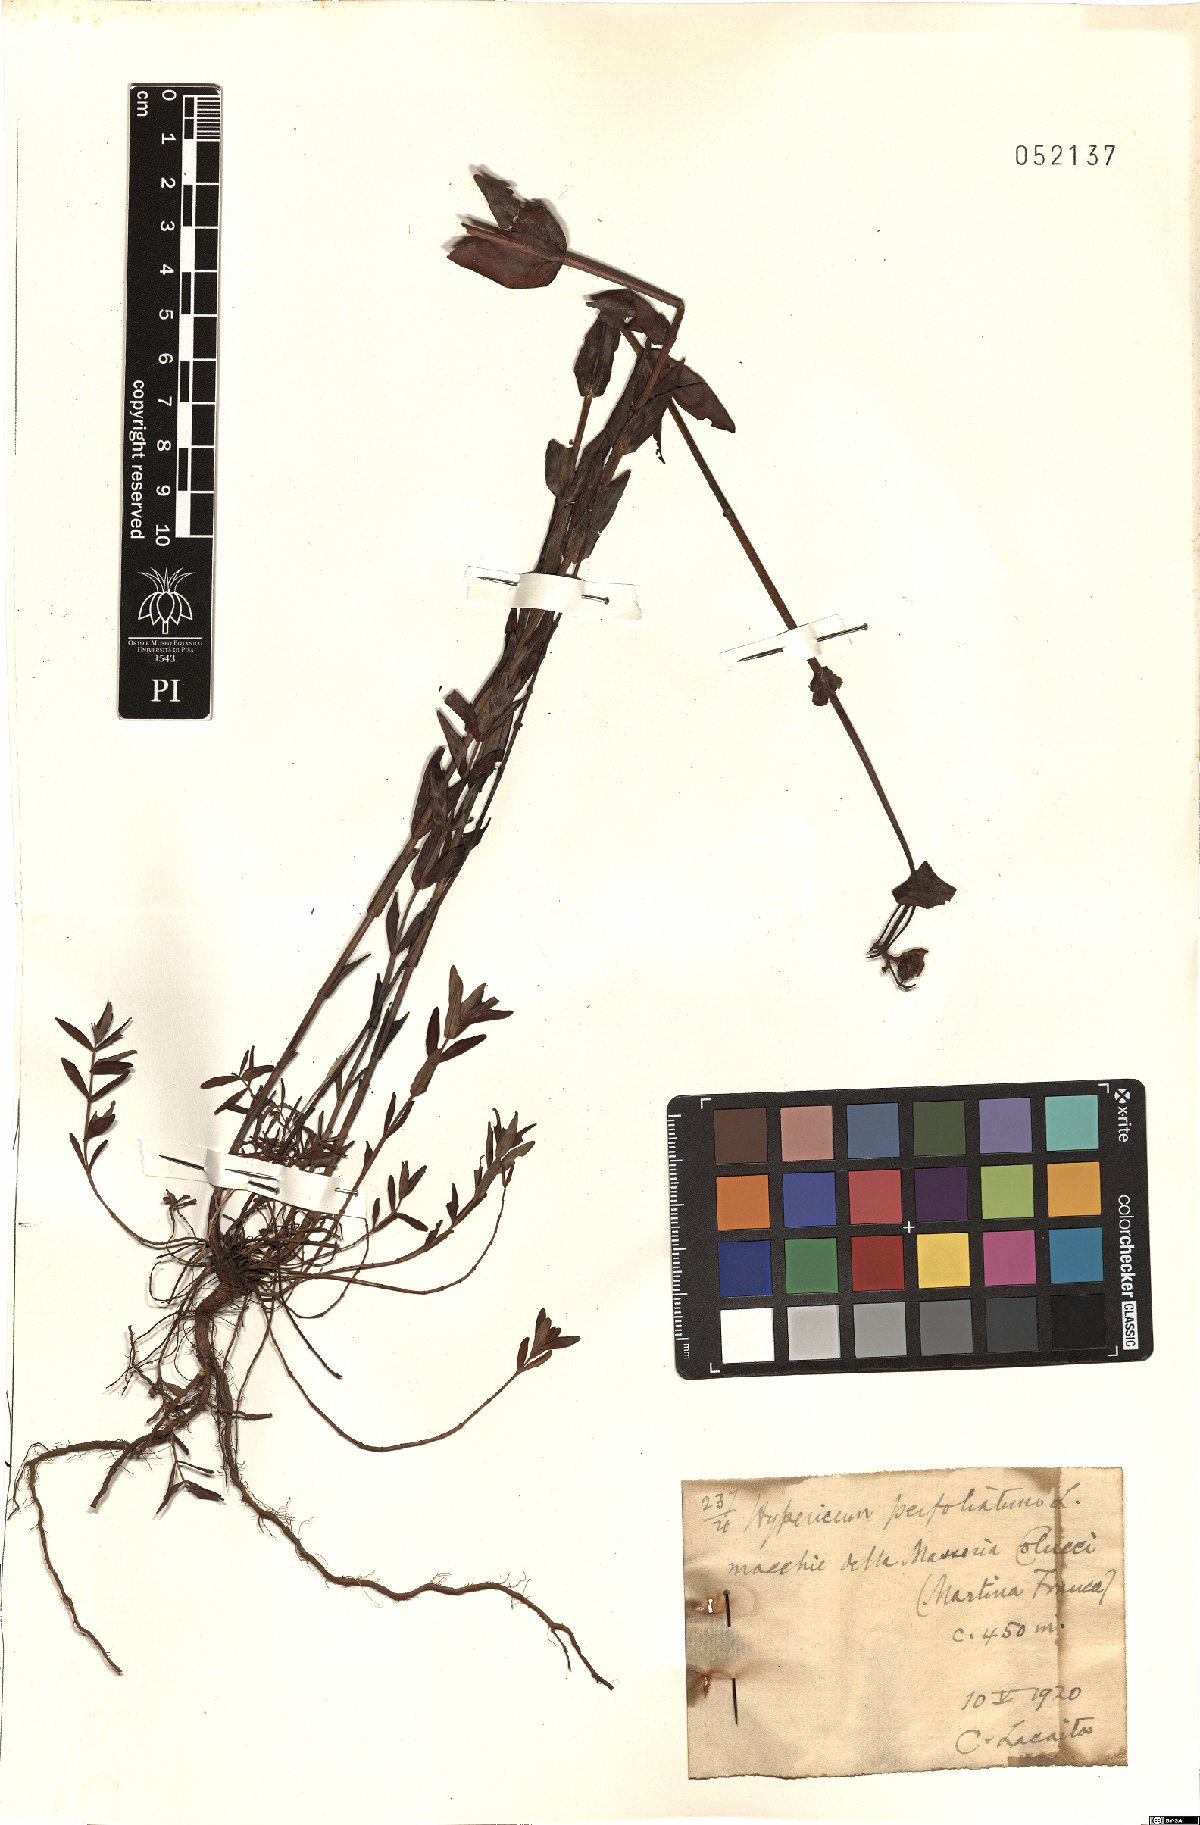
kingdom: Plantae
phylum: Tracheophyta
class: Magnoliopsida
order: Malpighiales
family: Hypericaceae
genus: Hypericum
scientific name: Hypericum perfoliatum
